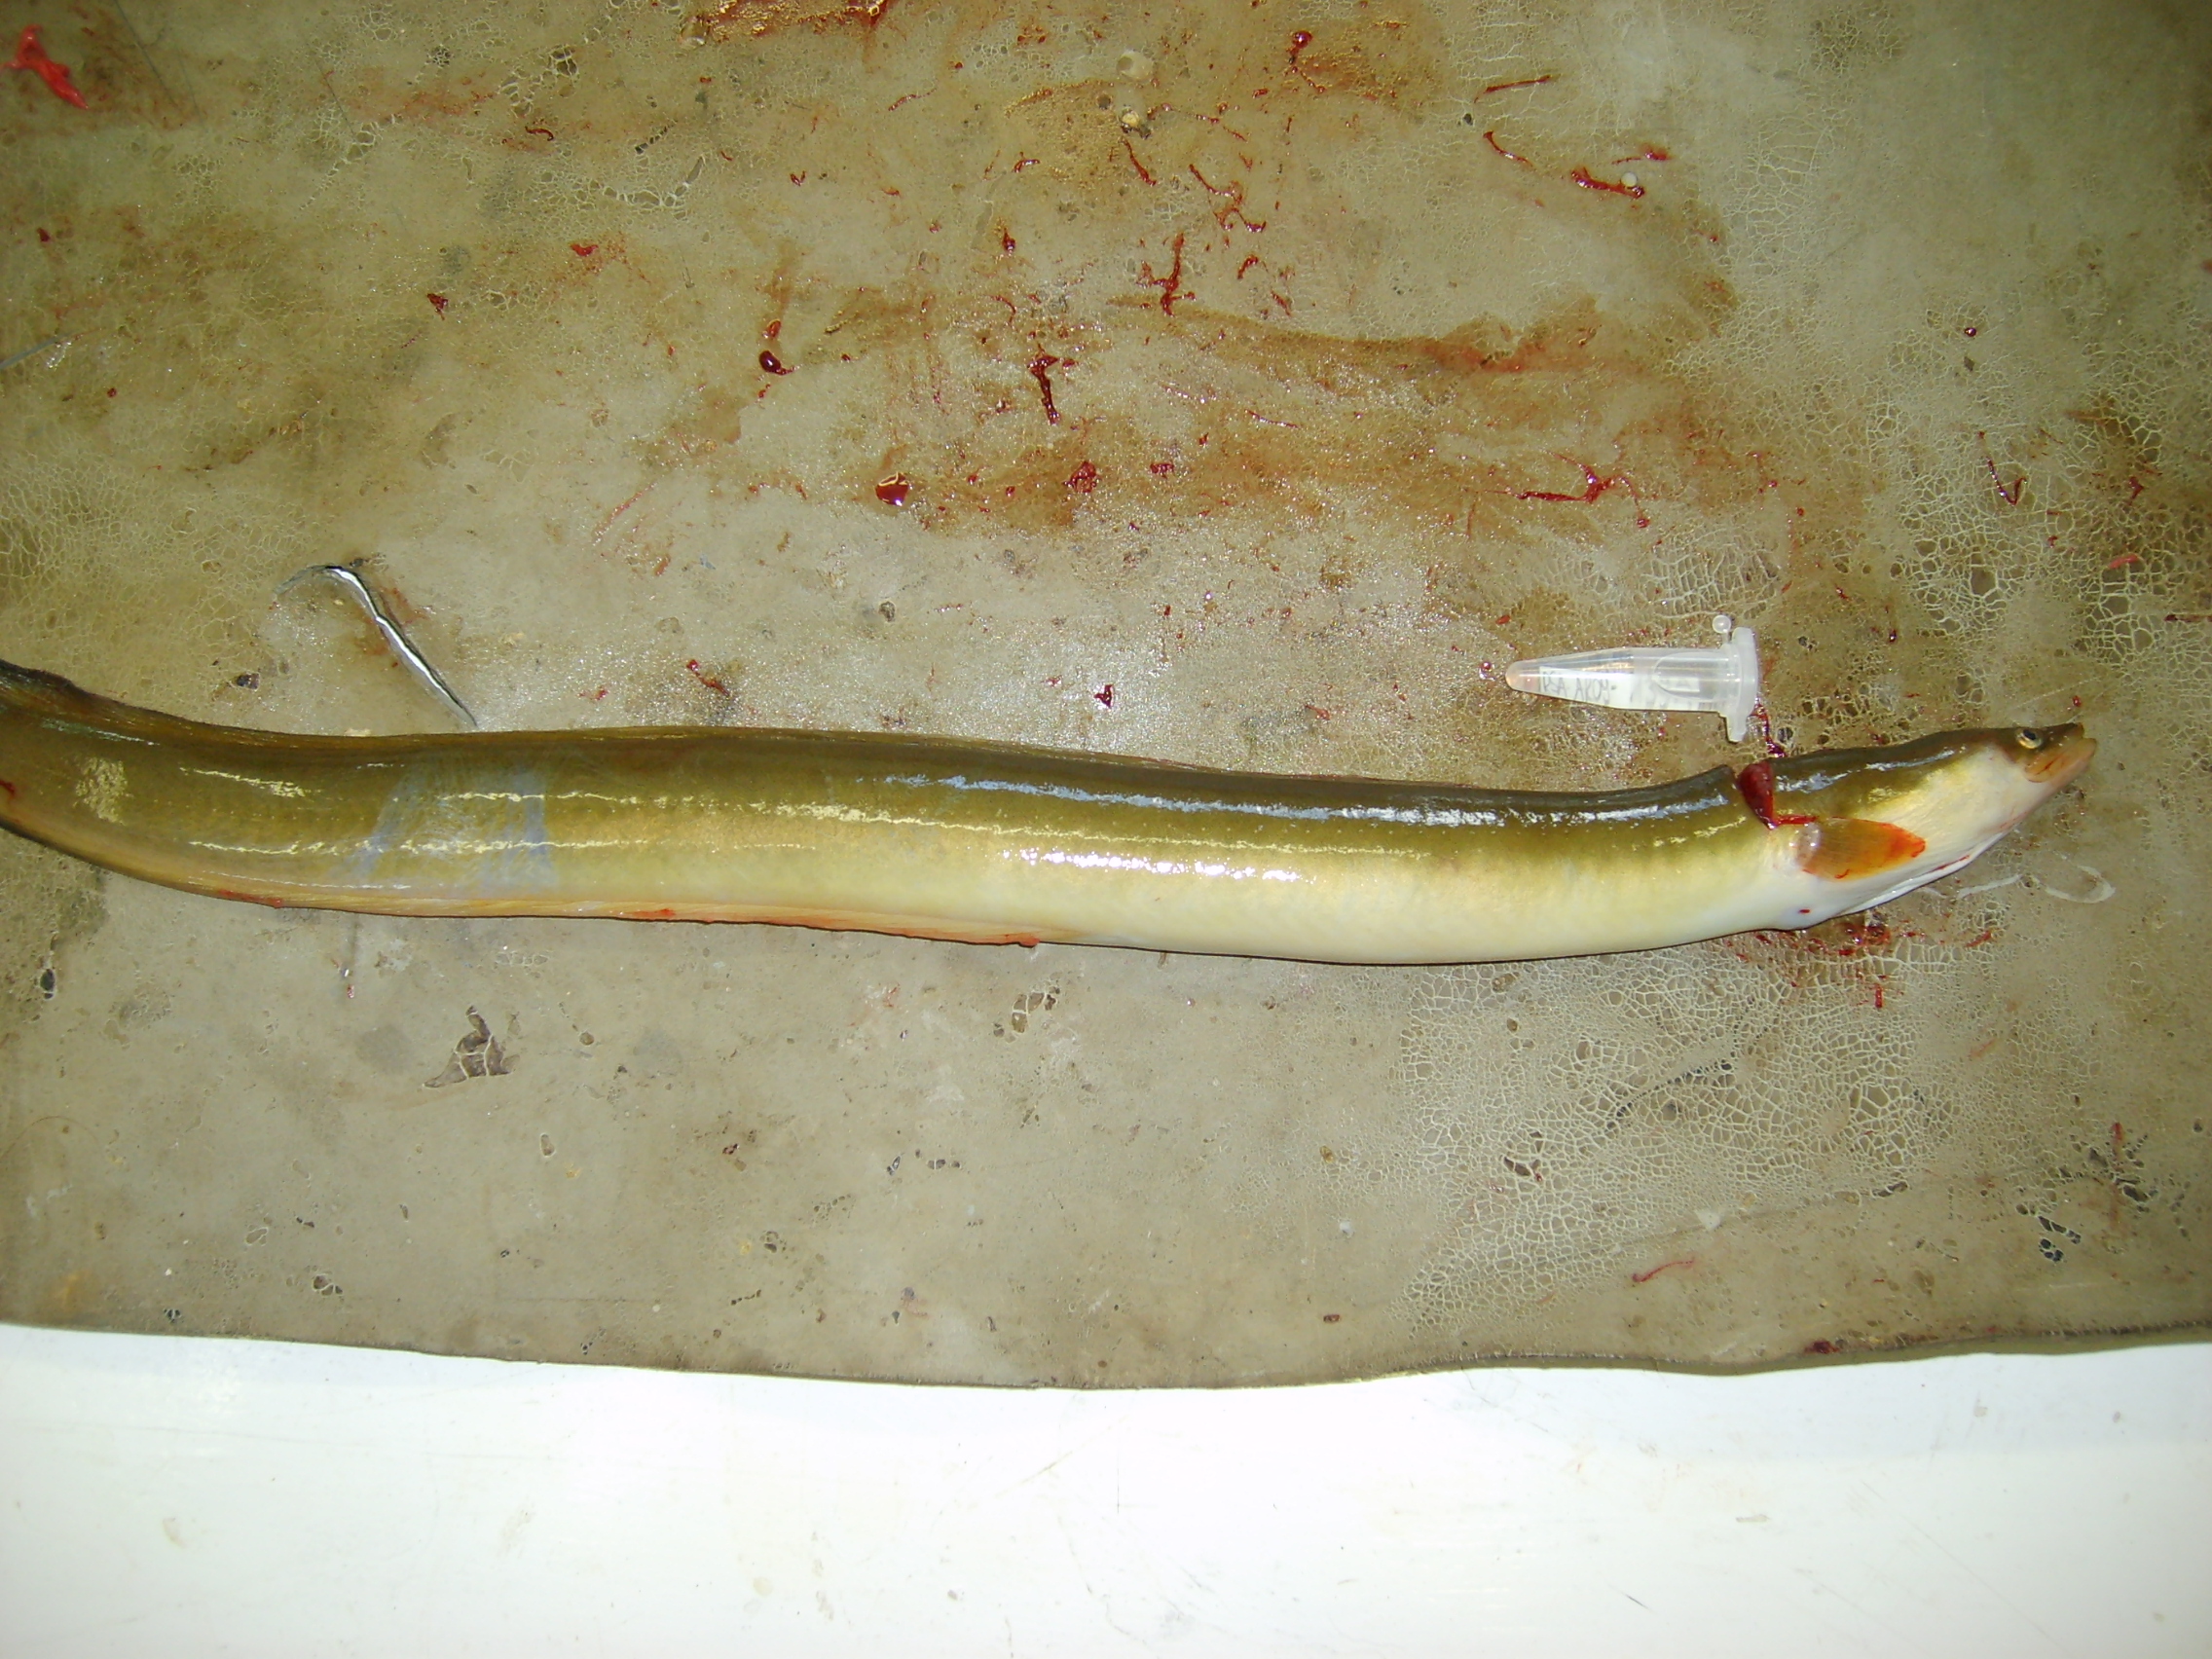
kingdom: Animalia
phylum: Chordata
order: Anguilliformes
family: Anguillidae
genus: Anguilla
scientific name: Anguilla mossambica
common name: African longfin eel
